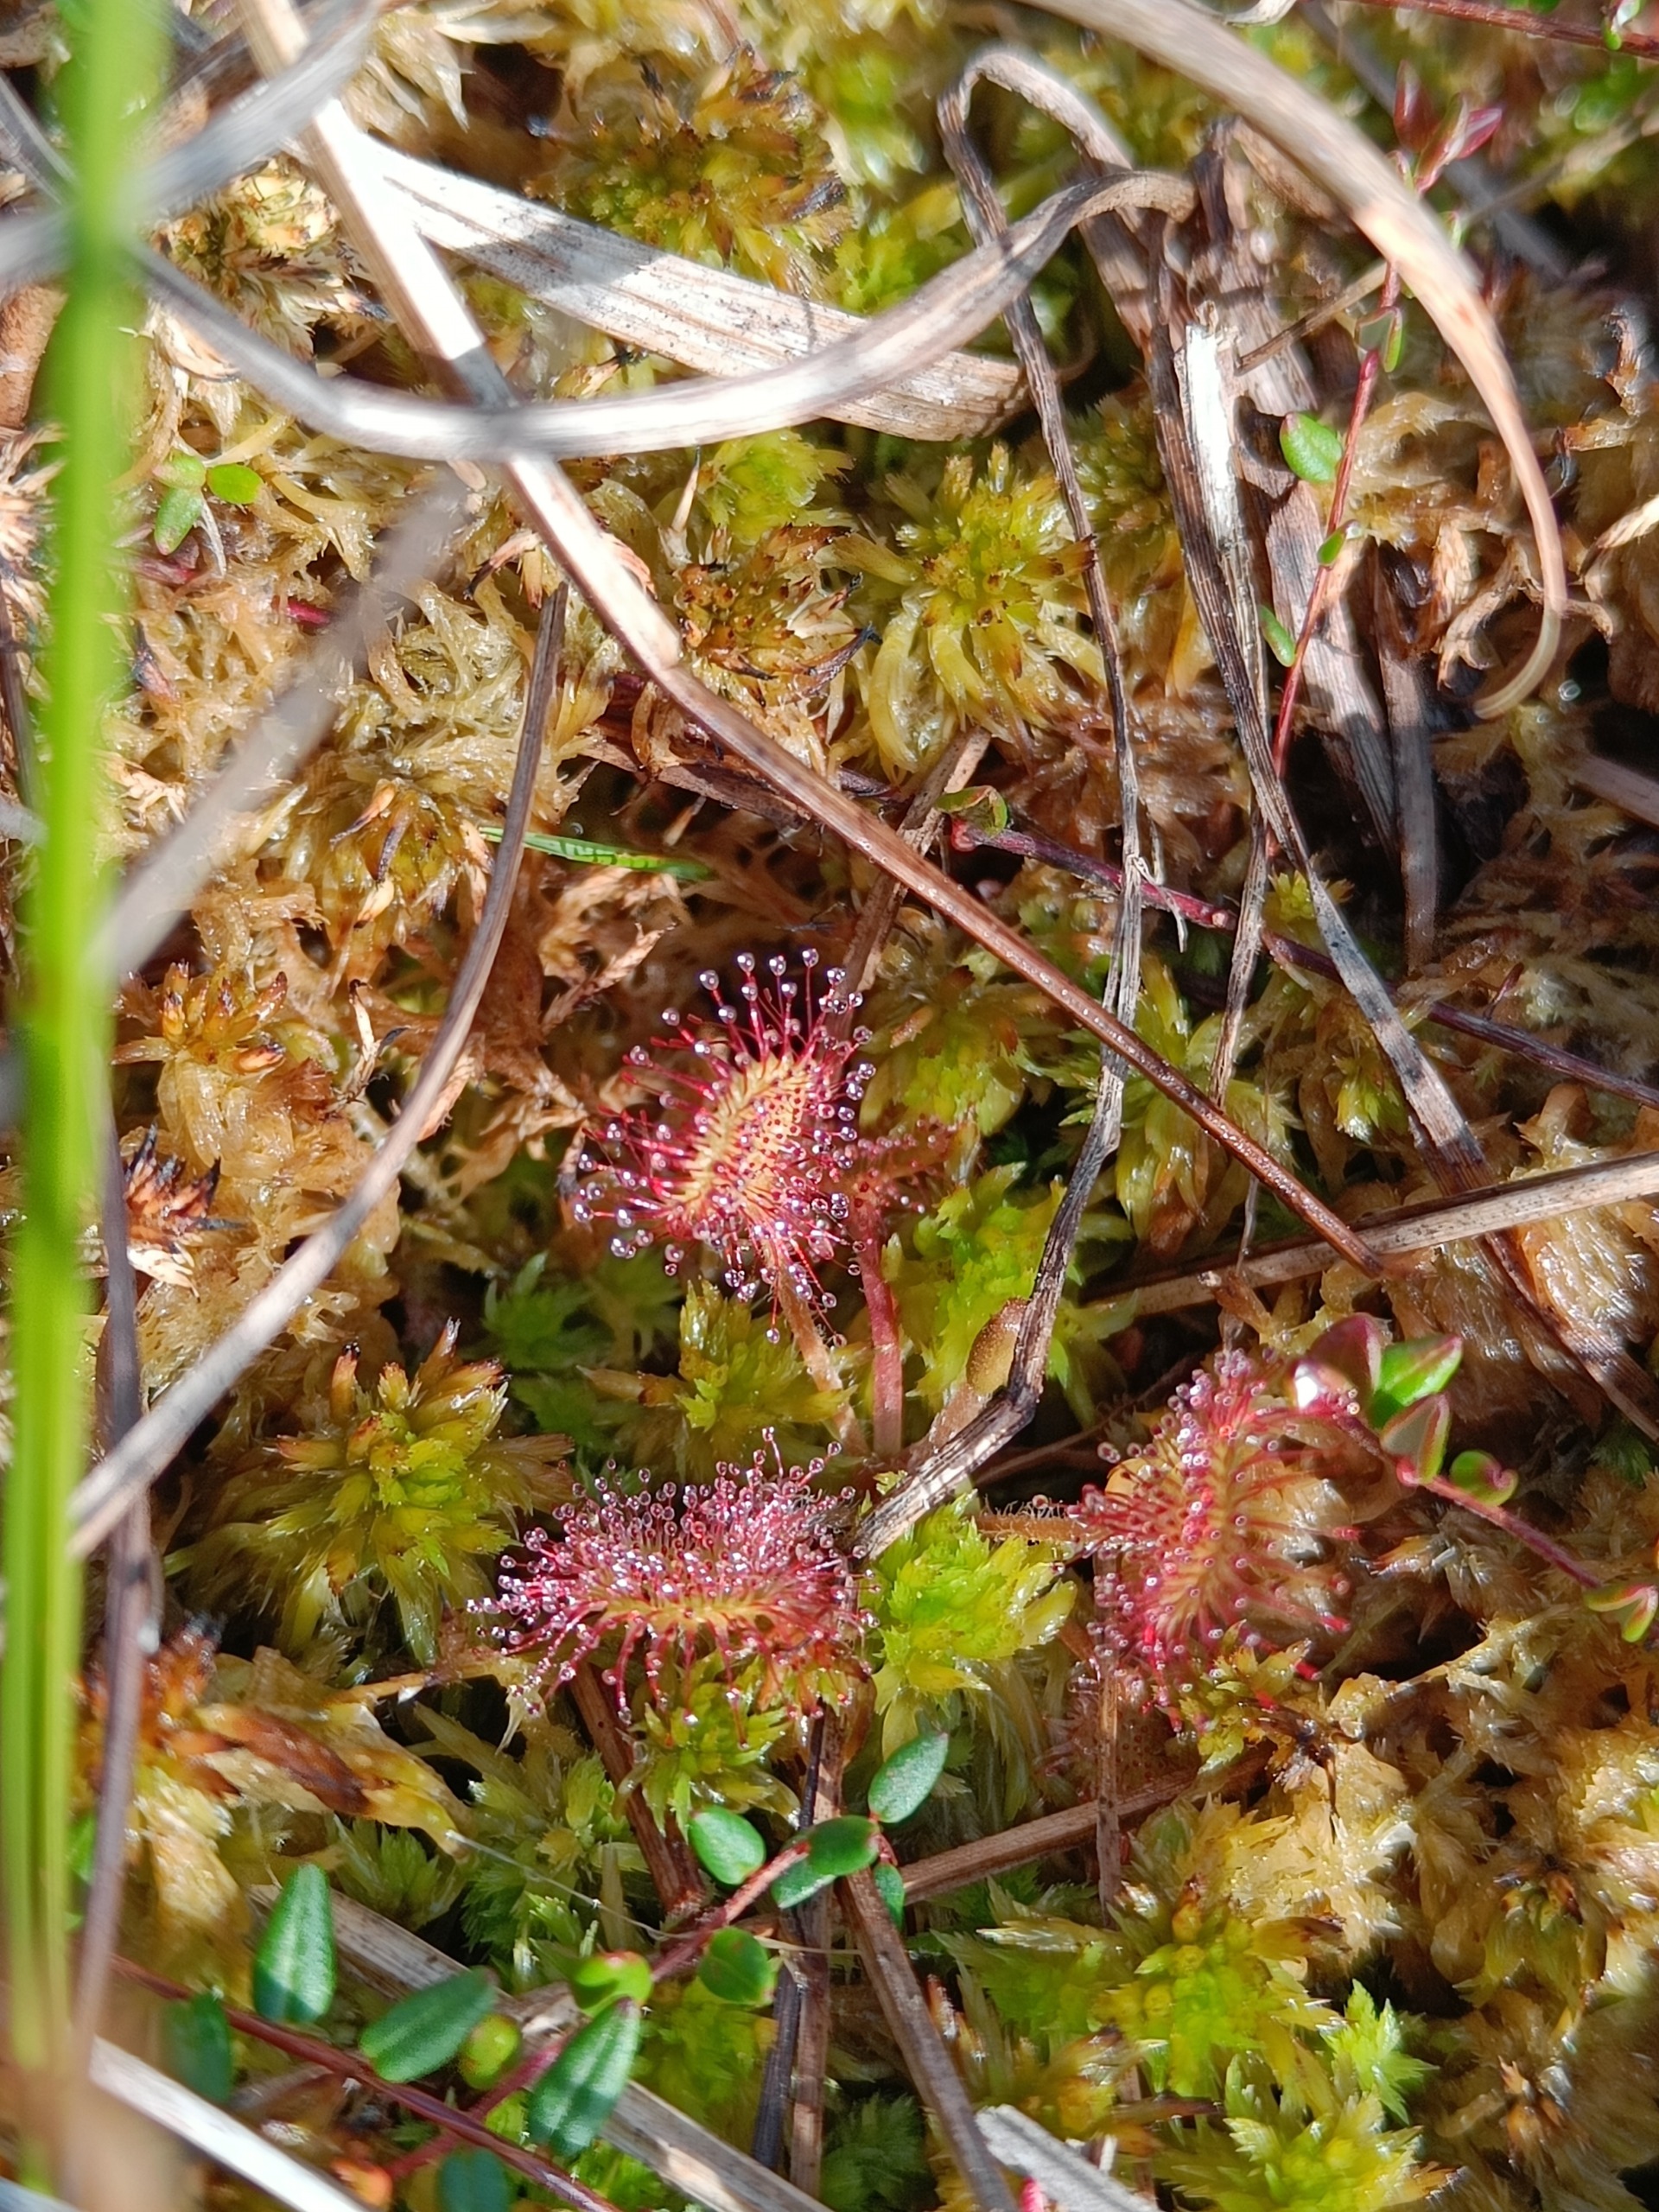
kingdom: Plantae
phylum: Tracheophyta
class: Magnoliopsida
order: Caryophyllales
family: Droseraceae
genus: Drosera
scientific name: Drosera rotundifolia
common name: Rundbladet soldug
